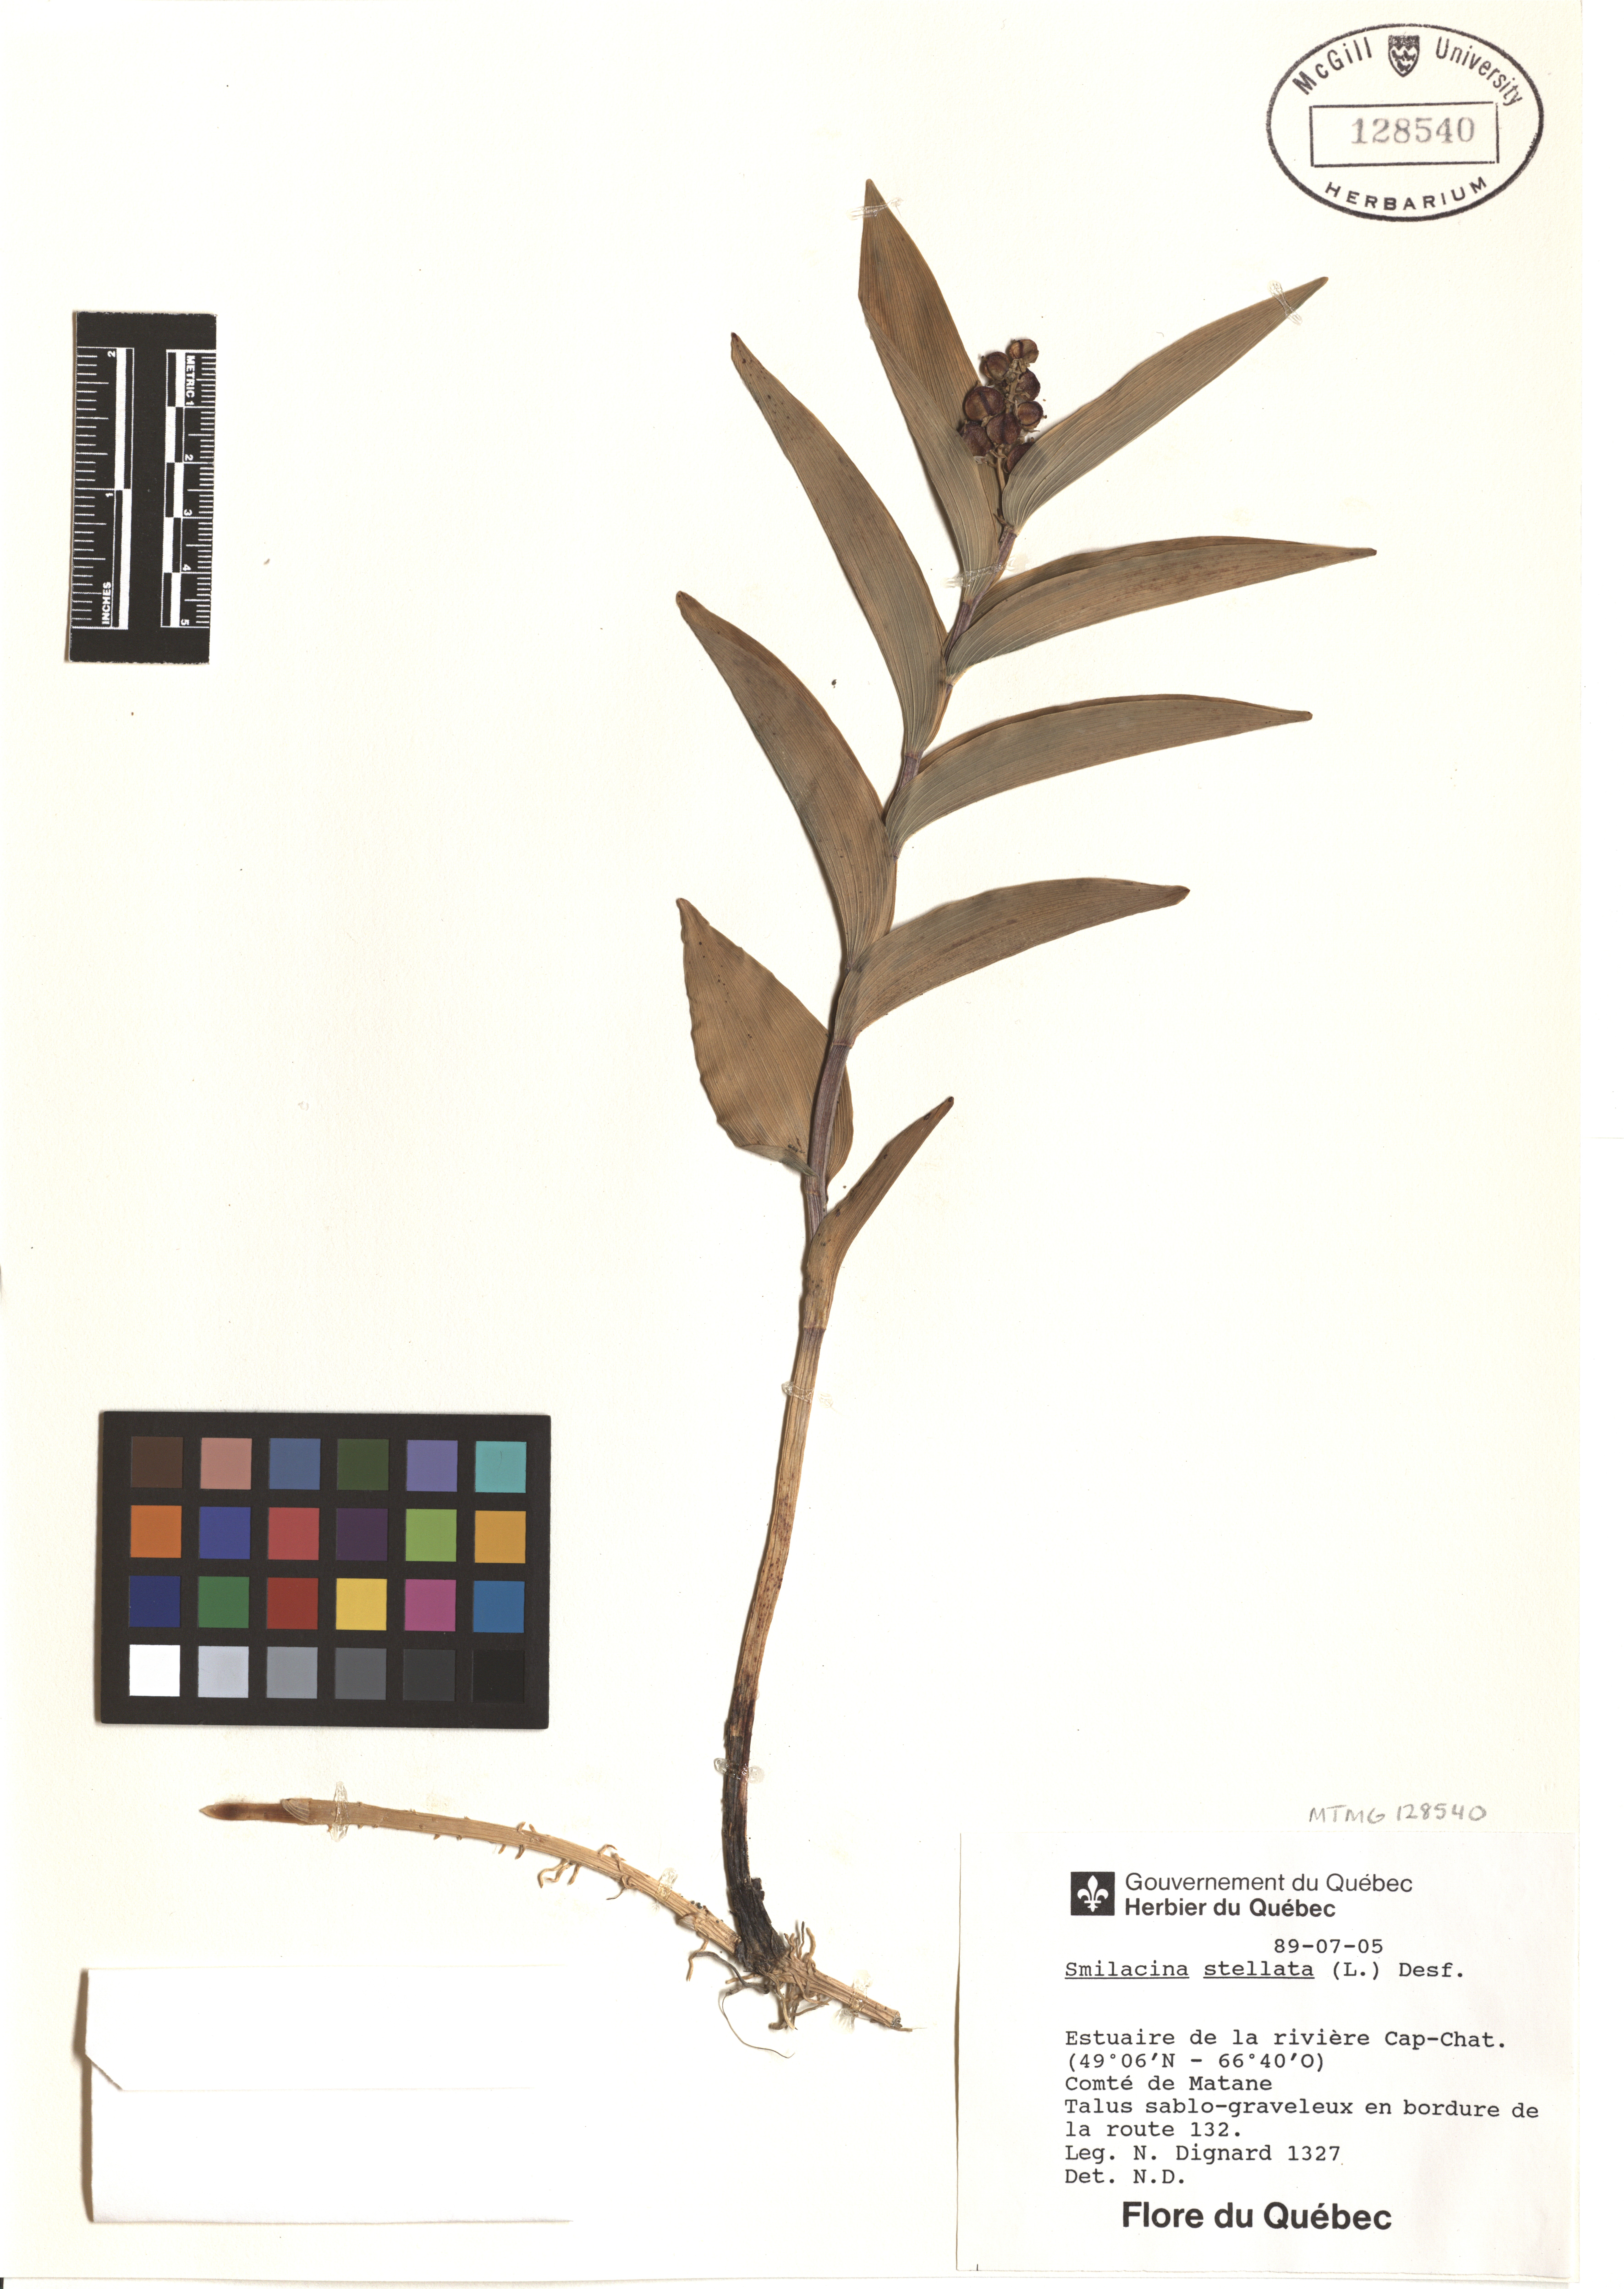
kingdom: Plantae
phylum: Tracheophyta
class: Liliopsida
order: Asparagales
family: Asparagaceae
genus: Maianthemum
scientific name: Maianthemum stellatum
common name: Little false solomon's seal
